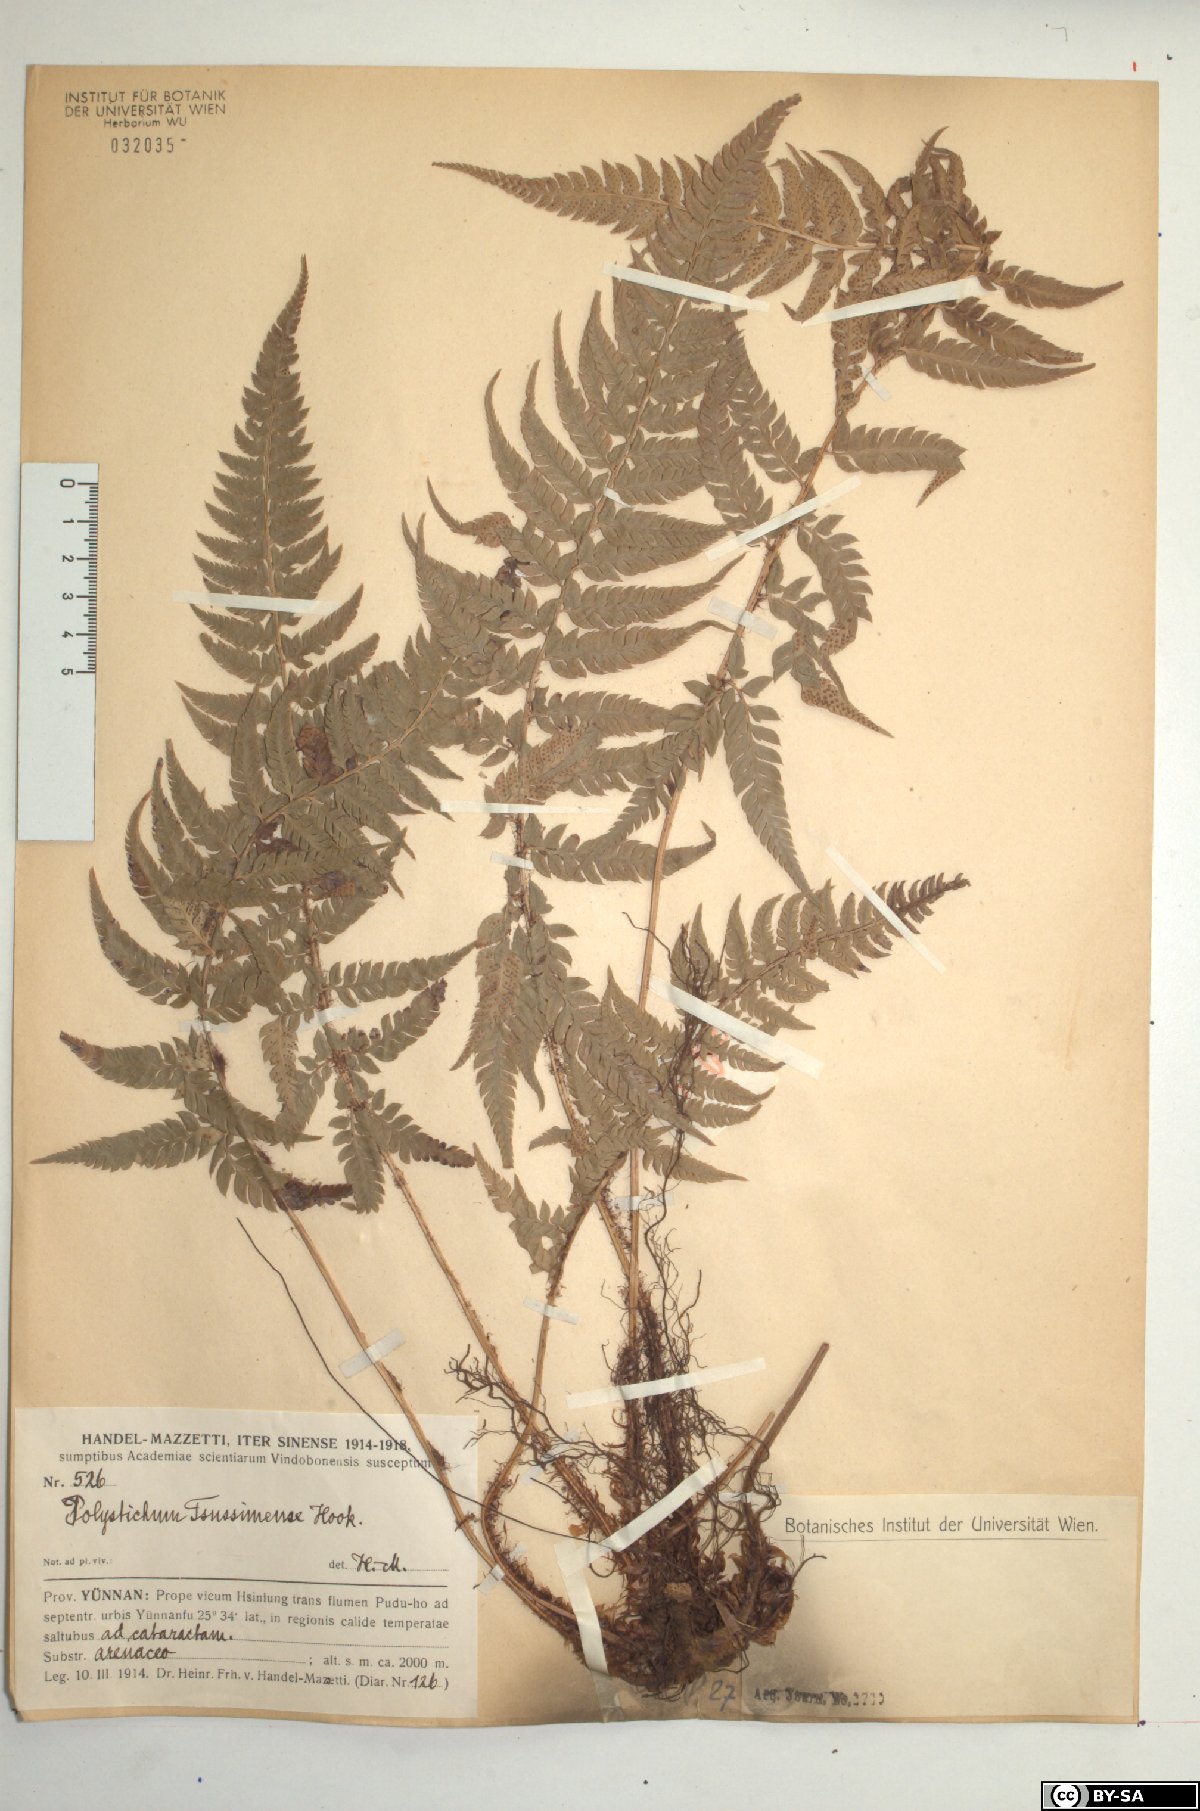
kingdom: Plantae
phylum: Tracheophyta
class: Polypodiopsida
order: Polypodiales
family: Dryopteridaceae
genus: Polystichum
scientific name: Polystichum luctuosum
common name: Korean rockfern
